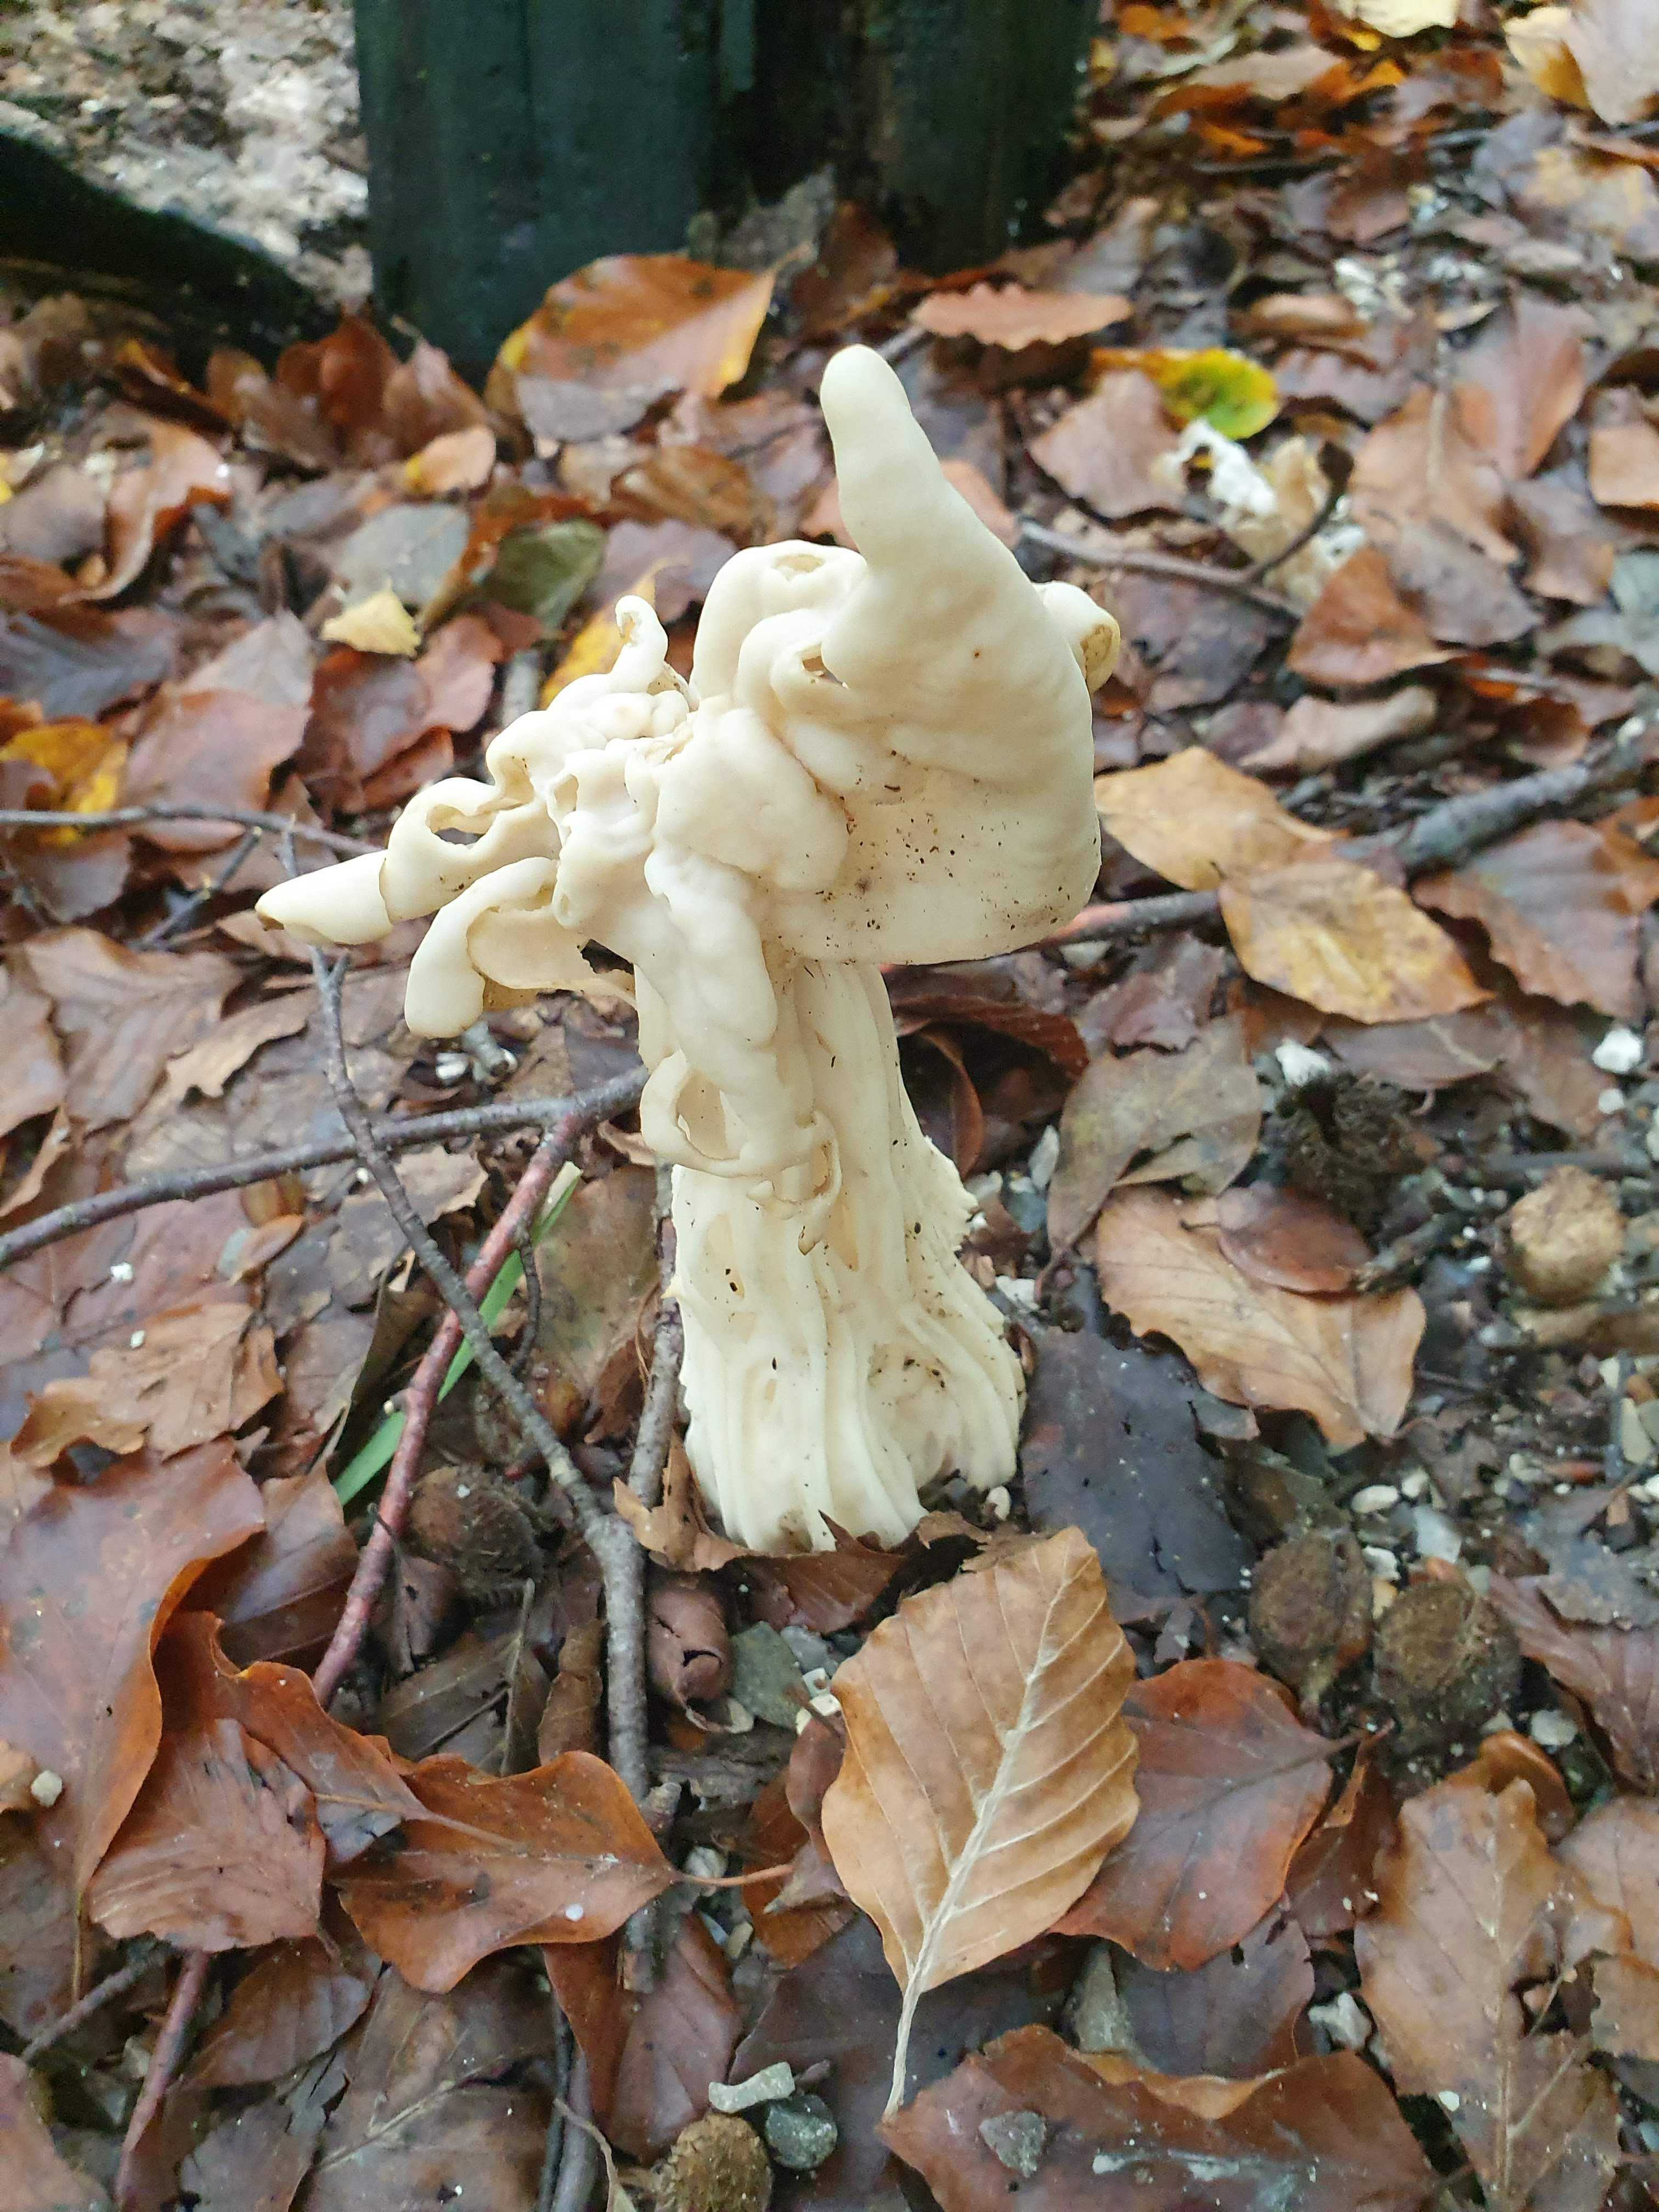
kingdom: Fungi
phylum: Ascomycota
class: Pezizomycetes
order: Pezizales
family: Helvellaceae
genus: Helvella
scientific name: Helvella crispa
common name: kruset foldhat
